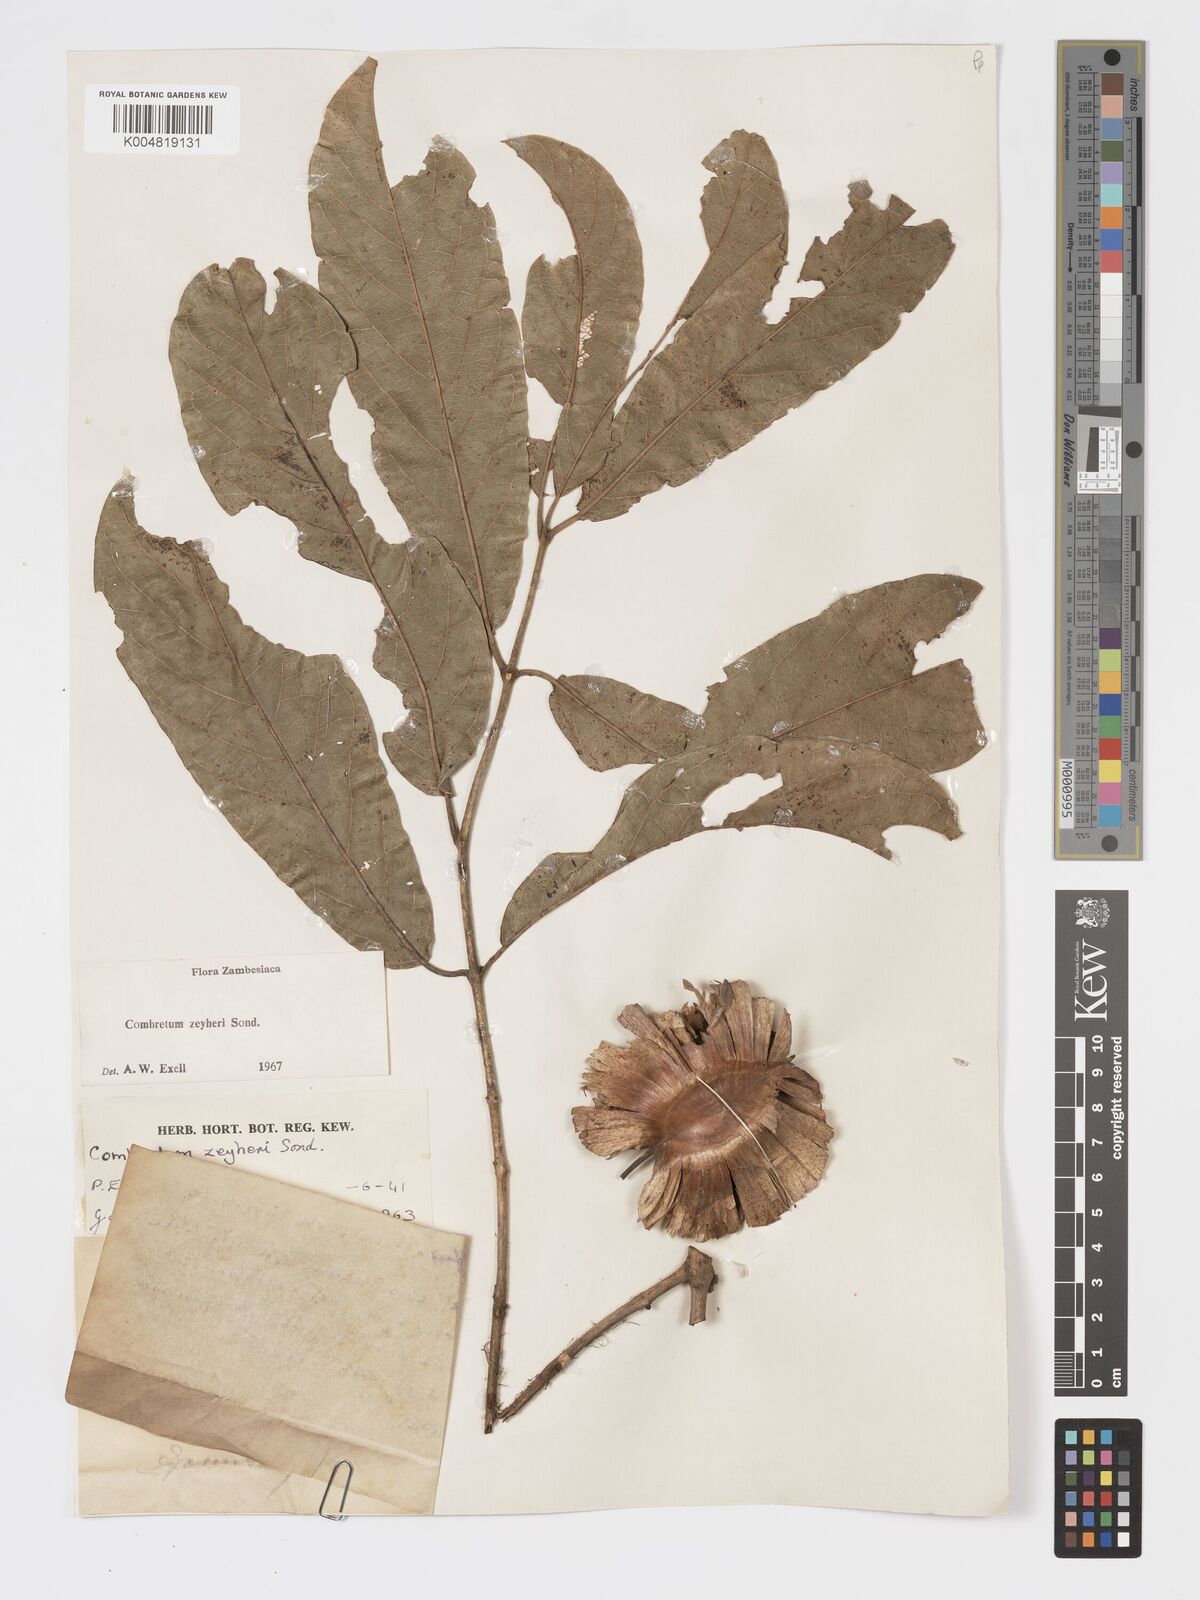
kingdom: Plantae
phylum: Tracheophyta
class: Magnoliopsida
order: Myrtales
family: Combretaceae
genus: Combretum
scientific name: Combretum zeyheri
